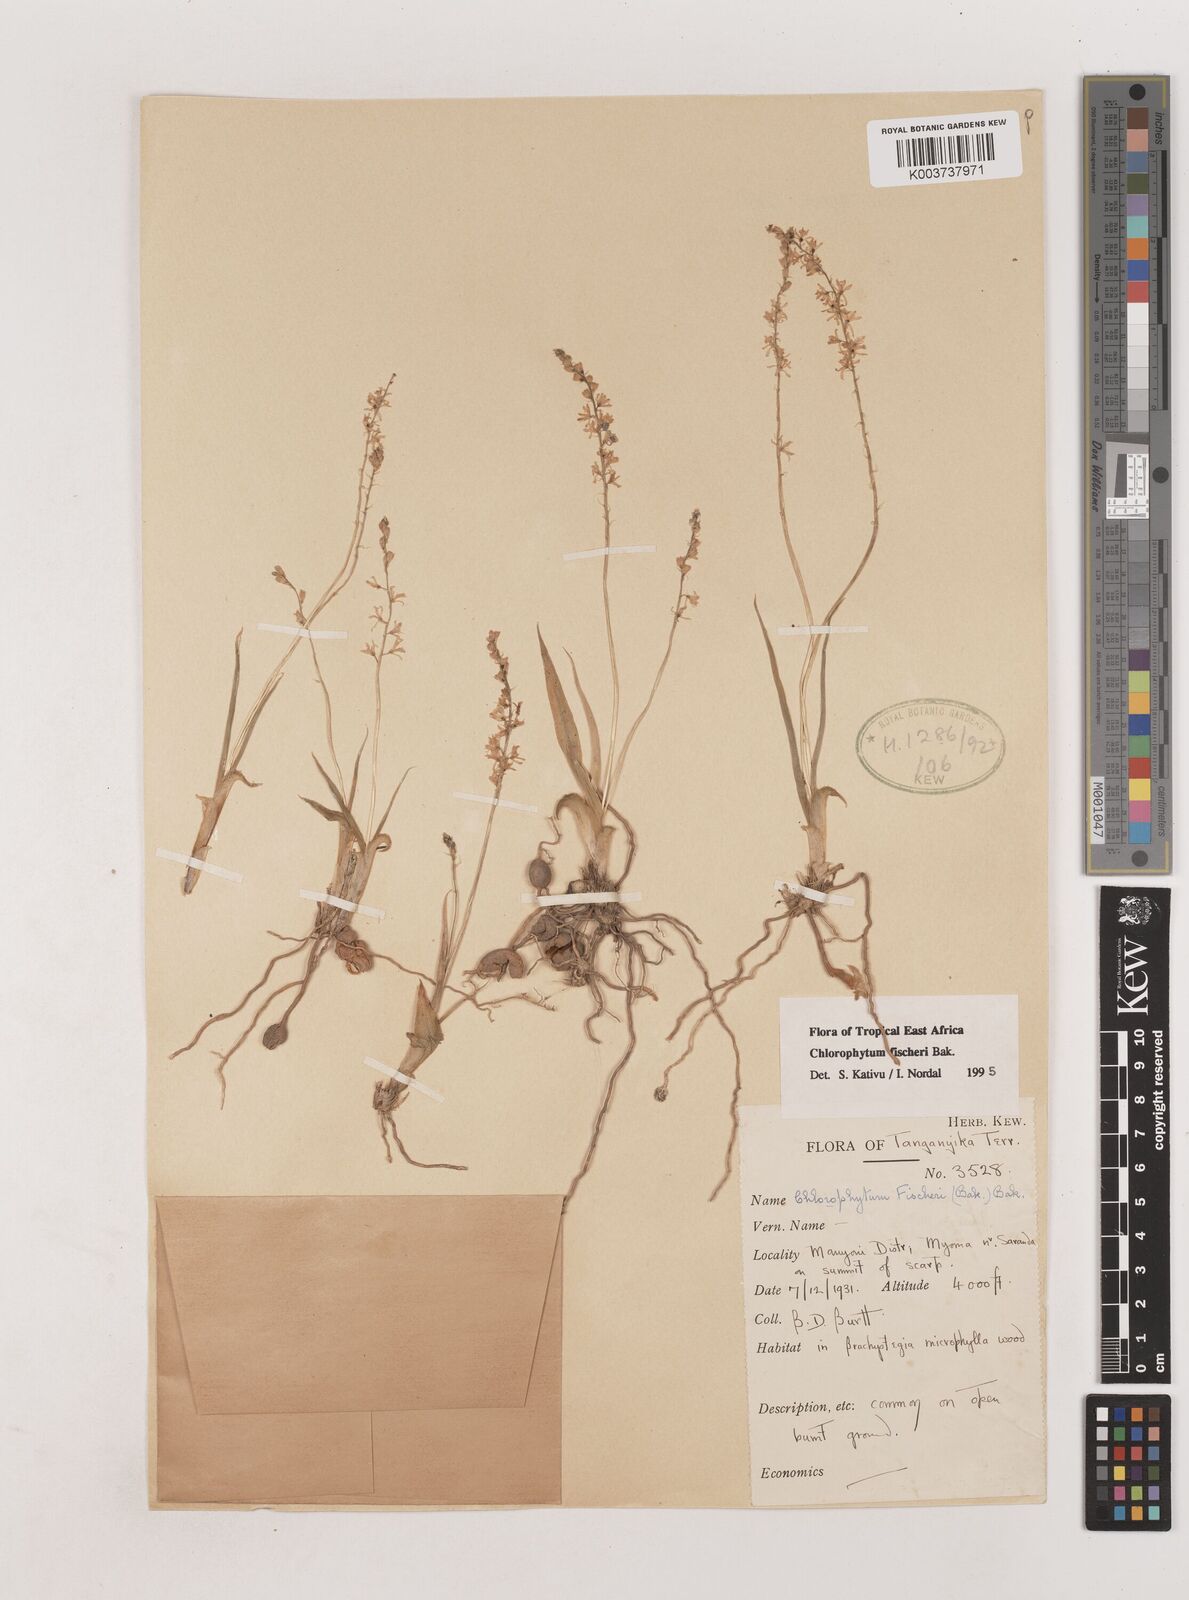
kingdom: Plantae
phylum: Tracheophyta
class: Liliopsida
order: Asparagales
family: Asparagaceae
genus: Chlorophytum
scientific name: Chlorophytum fischeri
